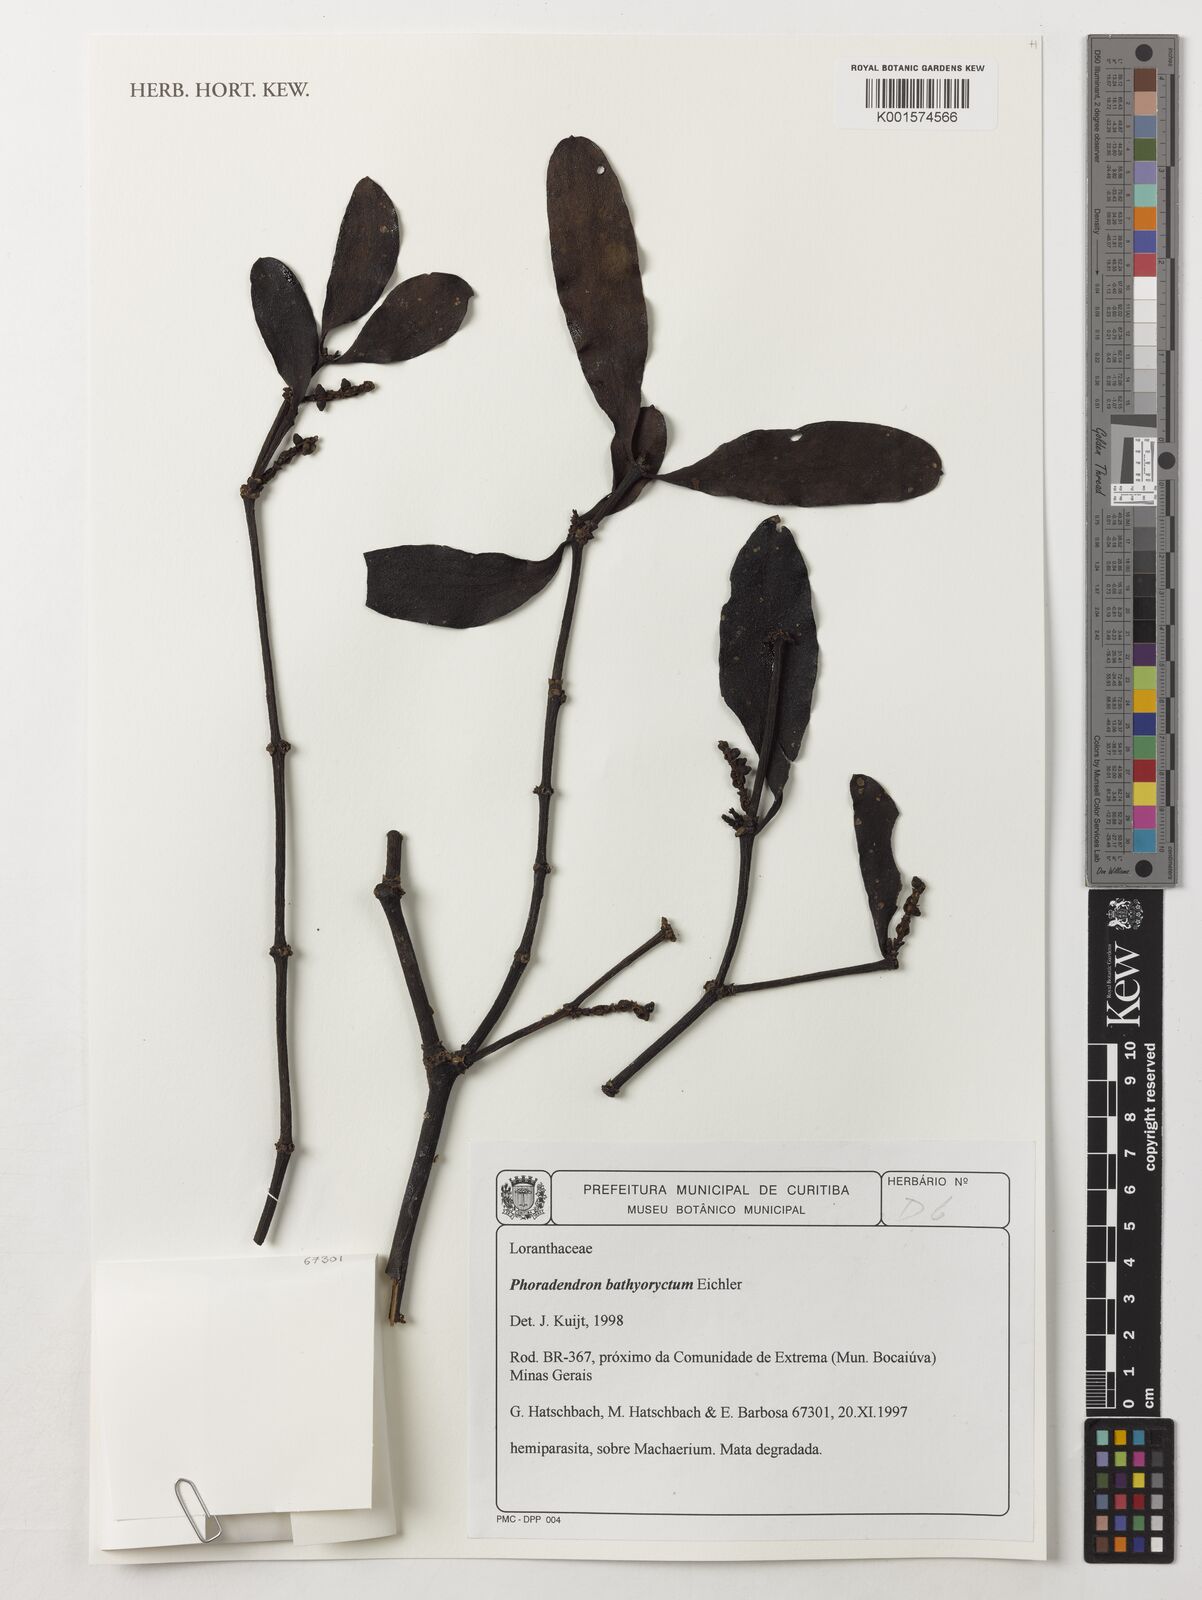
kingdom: Plantae
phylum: Tracheophyta
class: Magnoliopsida
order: Santalales
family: Viscaceae
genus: Phoradendron
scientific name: Phoradendron bathyoryctum
